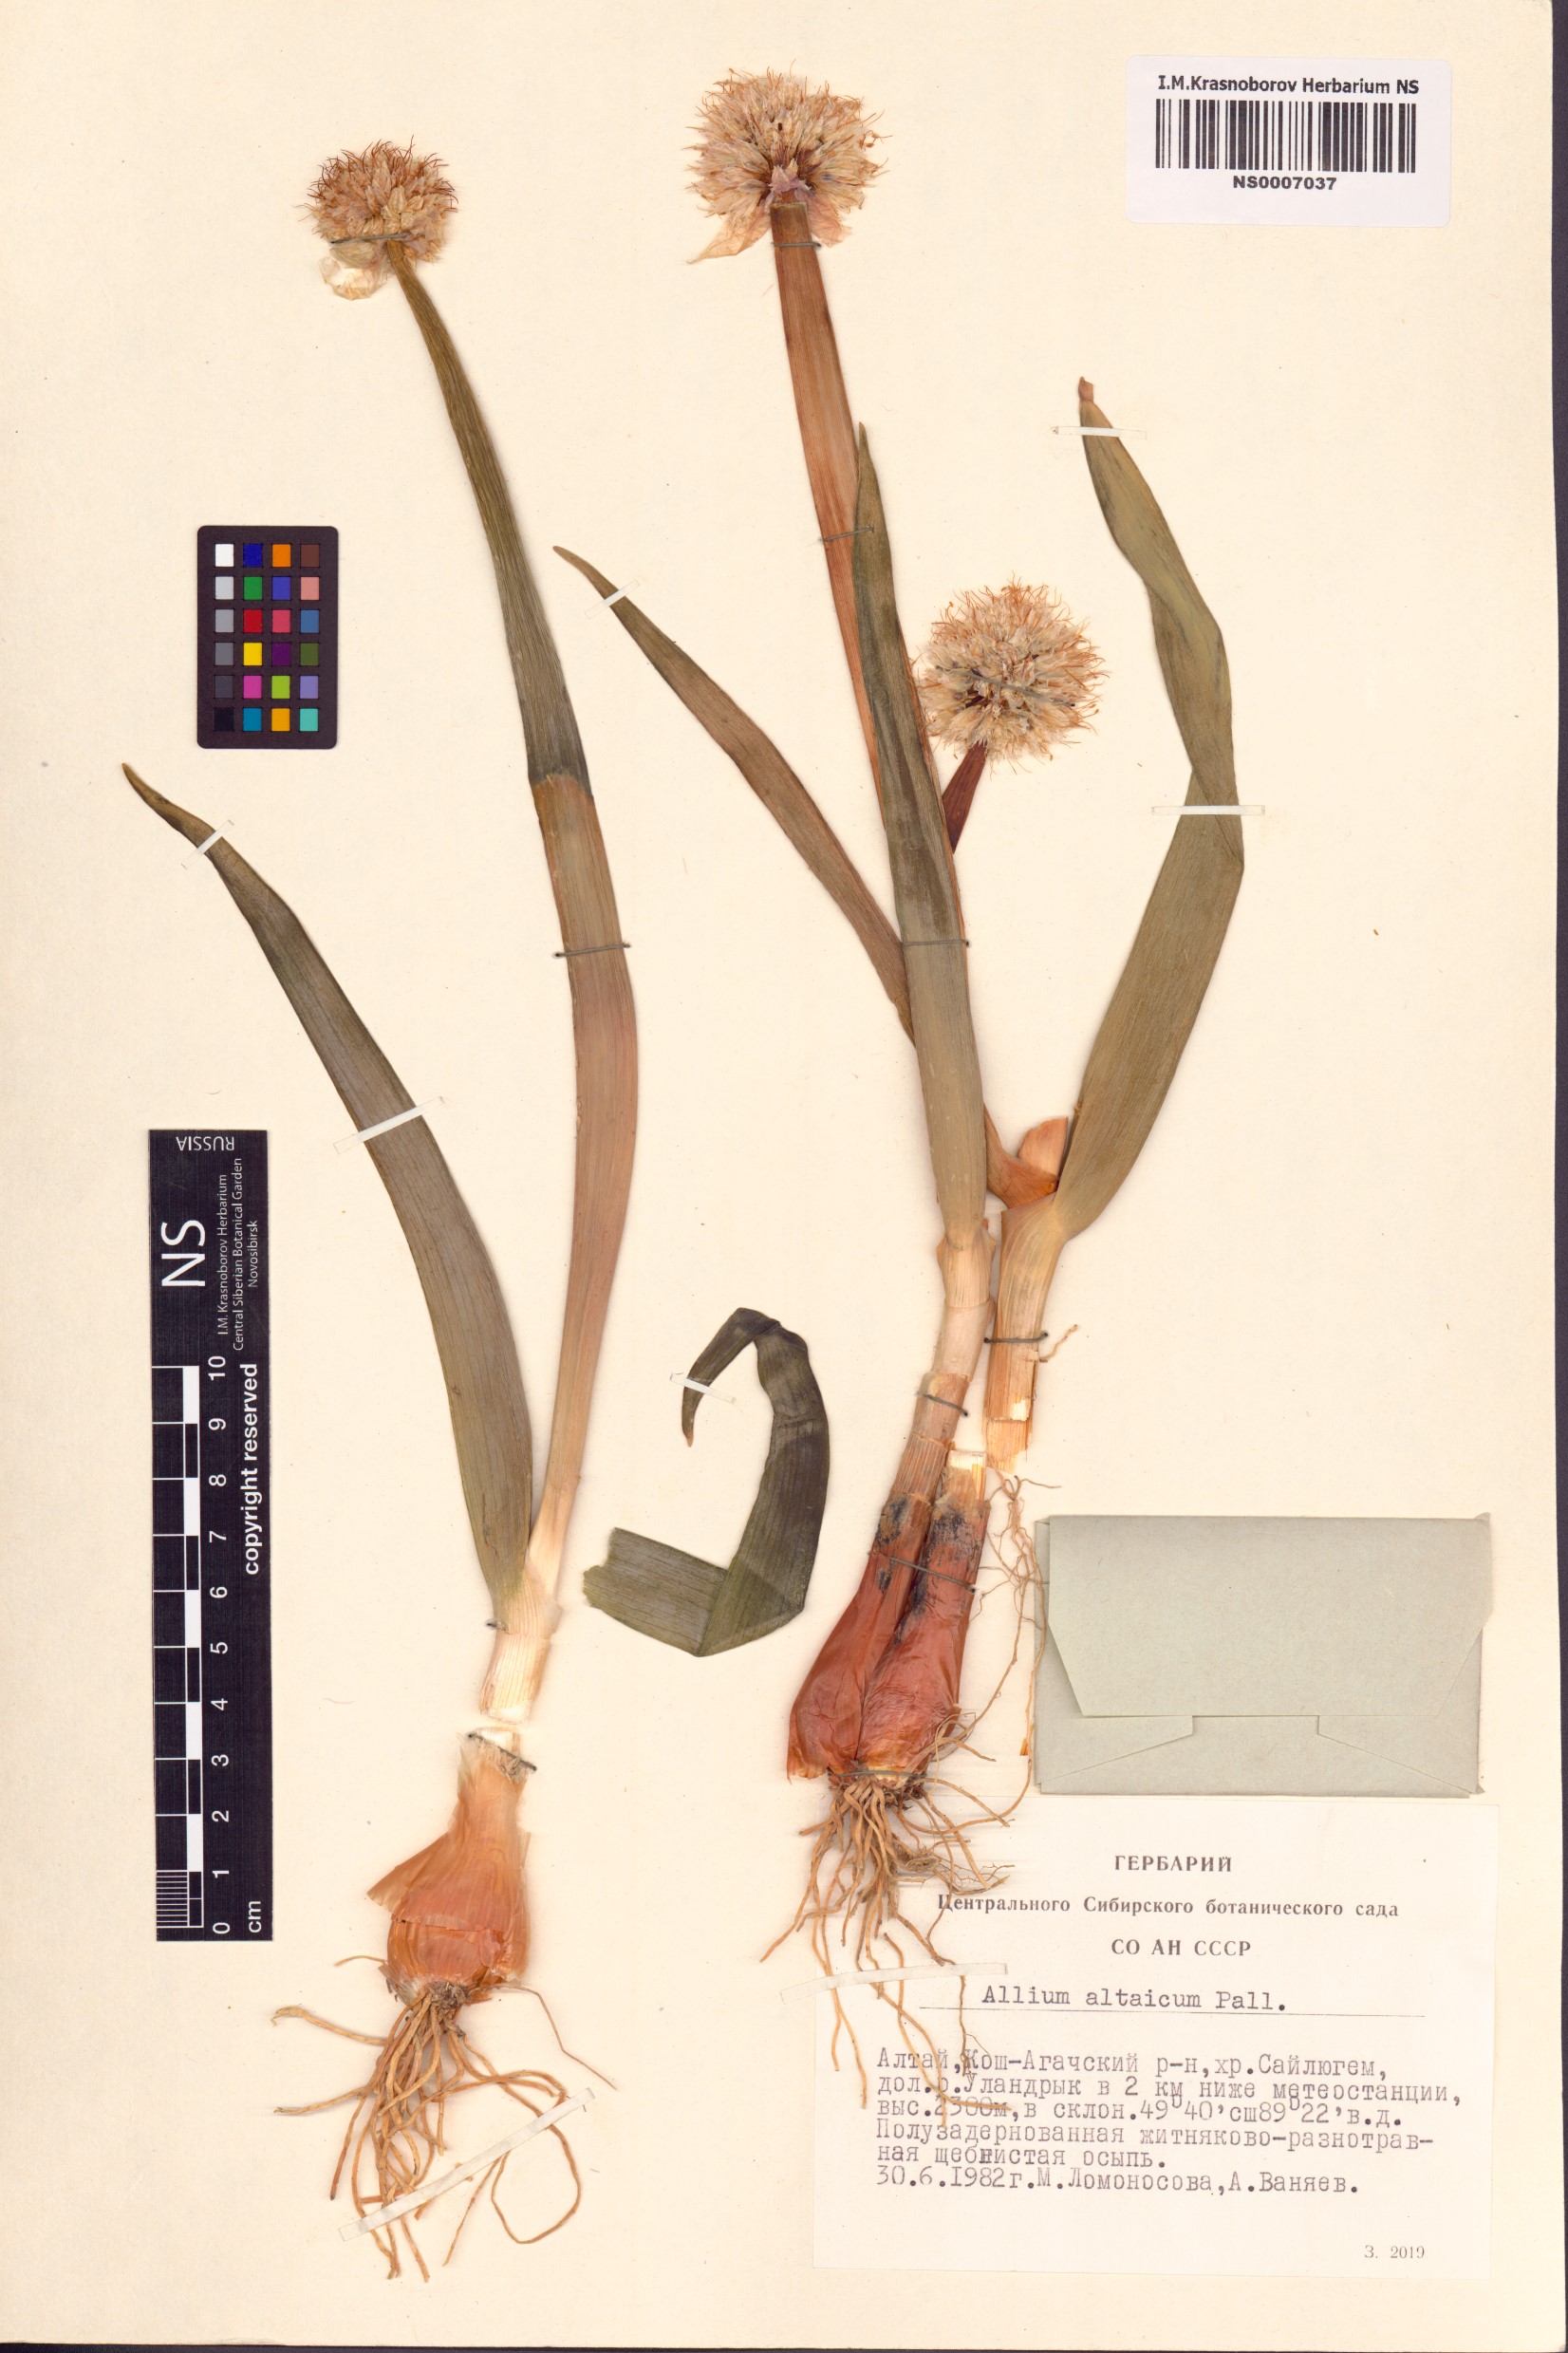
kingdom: Plantae
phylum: Tracheophyta
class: Liliopsida
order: Asparagales
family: Amaryllidaceae
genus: Allium
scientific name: Allium altaicum
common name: Altai onion
